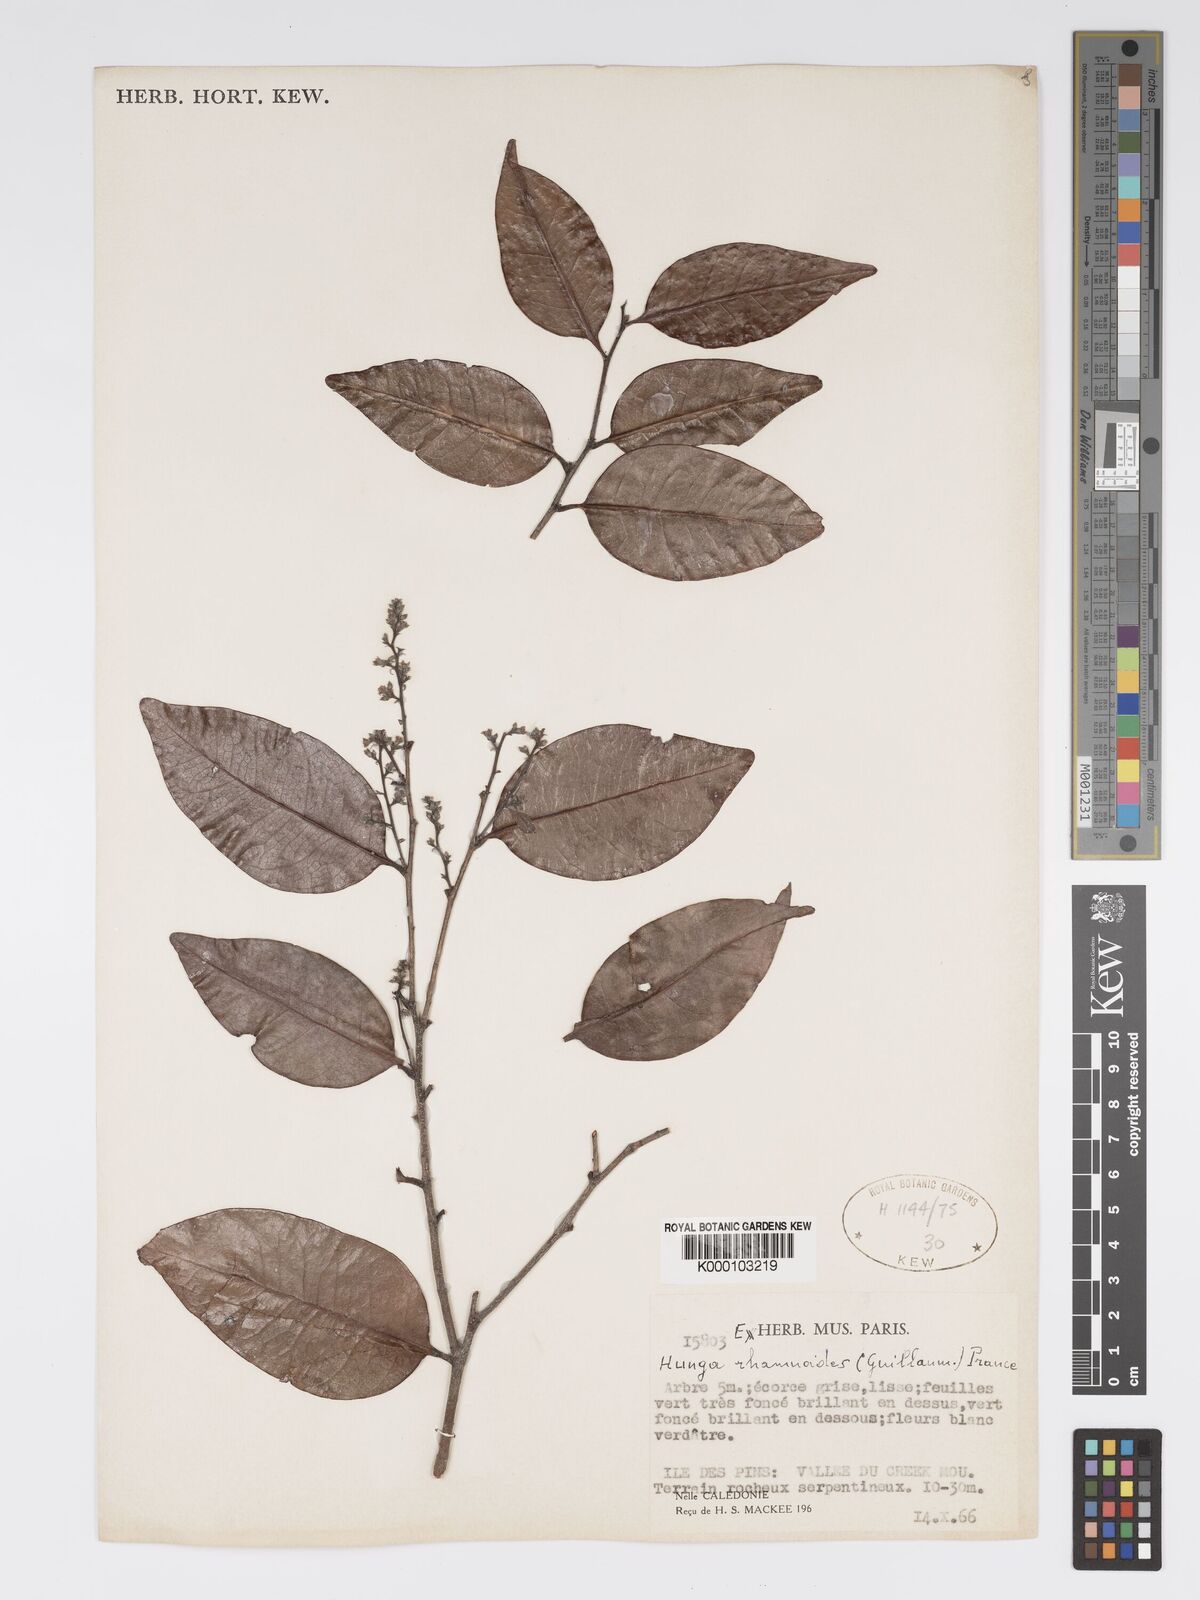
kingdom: Plantae
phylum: Tracheophyta
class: Magnoliopsida
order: Malpighiales
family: Chrysobalanaceae
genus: Hunga
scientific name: Hunga rhamnoides
